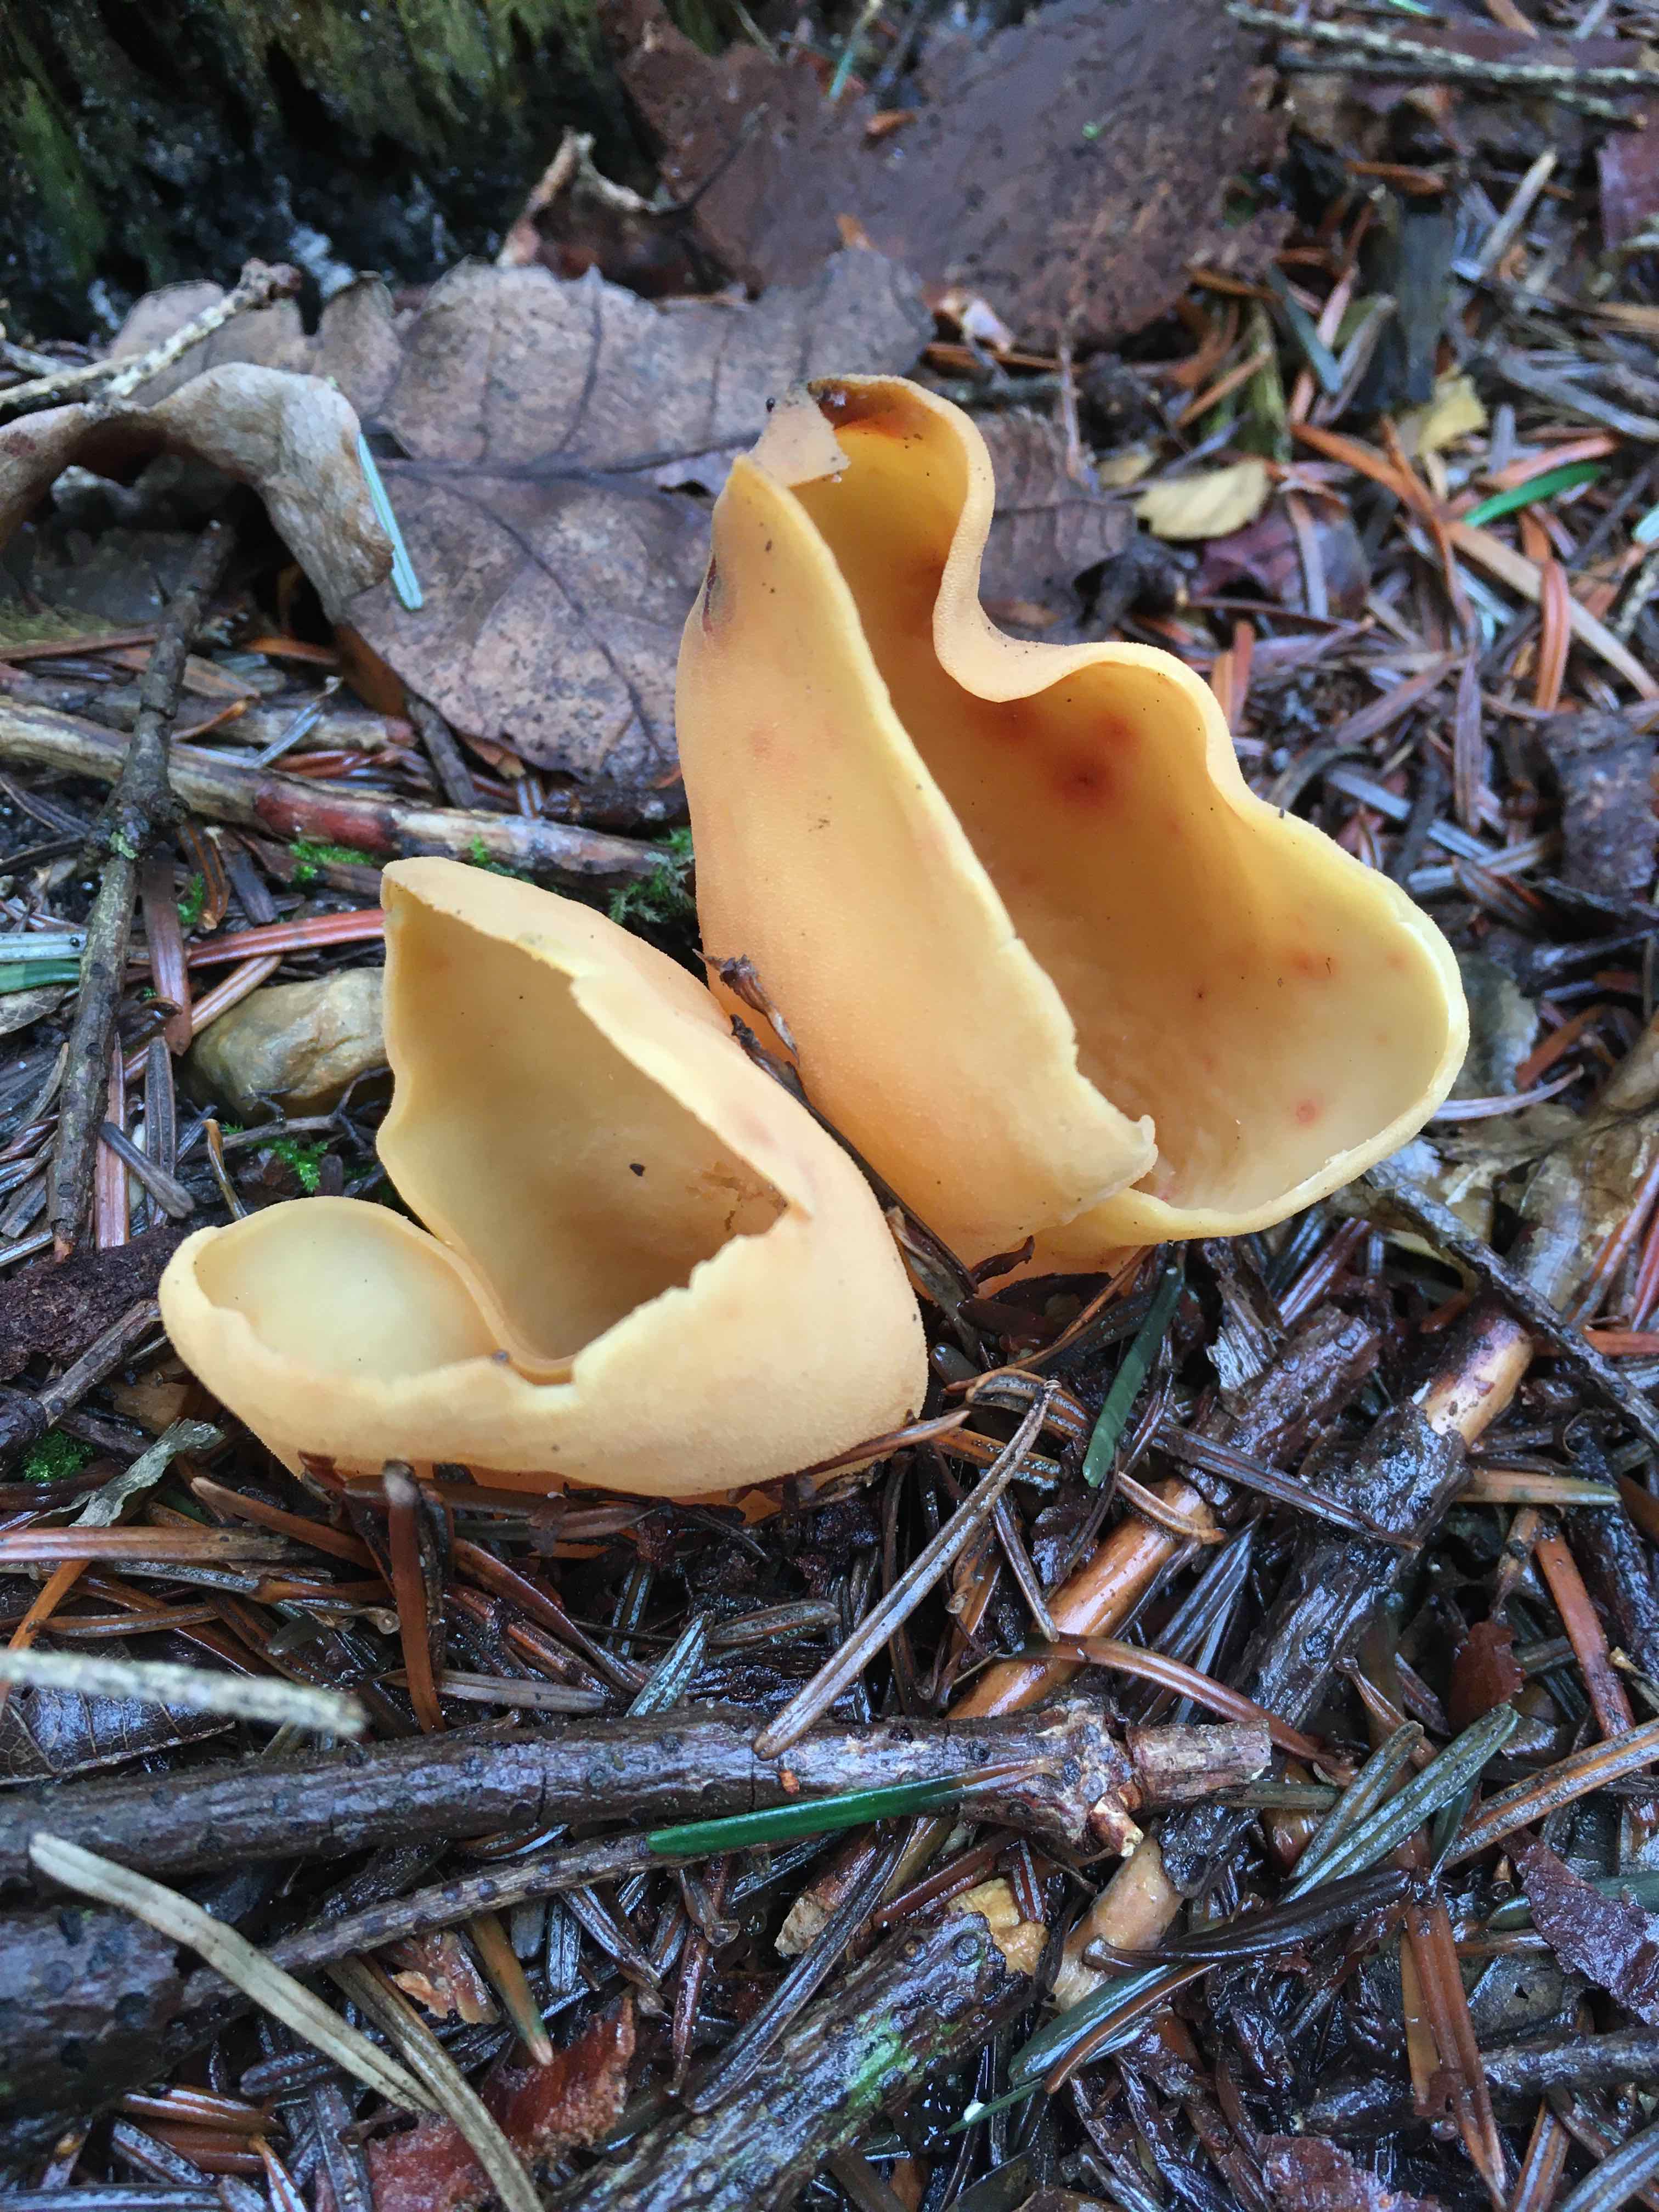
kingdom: Fungi
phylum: Ascomycota
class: Pezizomycetes
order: Pezizales
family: Otideaceae
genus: Otidea
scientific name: Otidea onotica
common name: æsel-ørebæger
